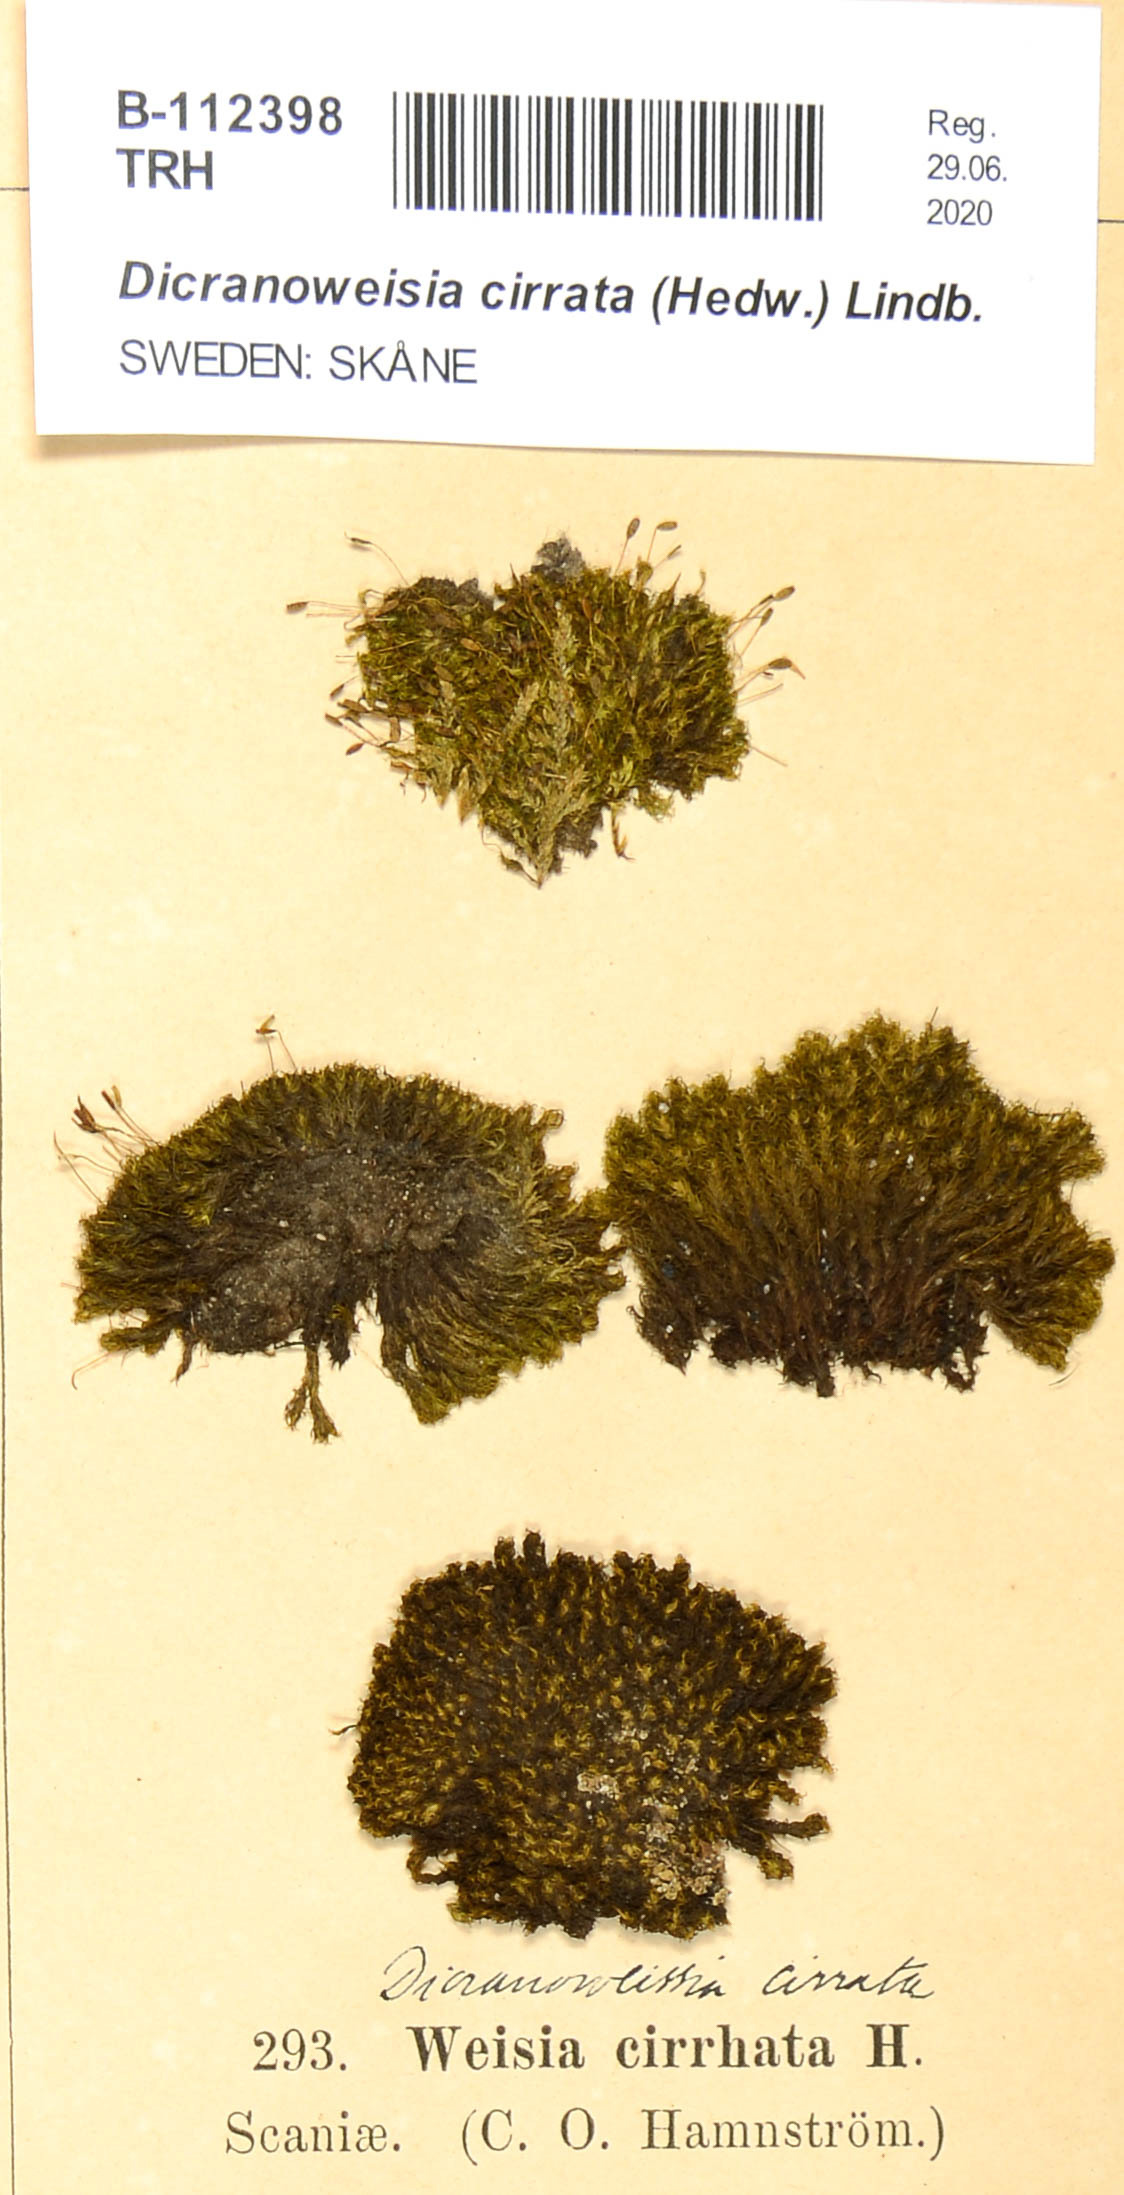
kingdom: Plantae
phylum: Bryophyta
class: Bryopsida
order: Dicranales
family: Rhabdoweisiaceae
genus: Dicranoweisia
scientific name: Dicranoweisia cirrata
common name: Common pincushion
